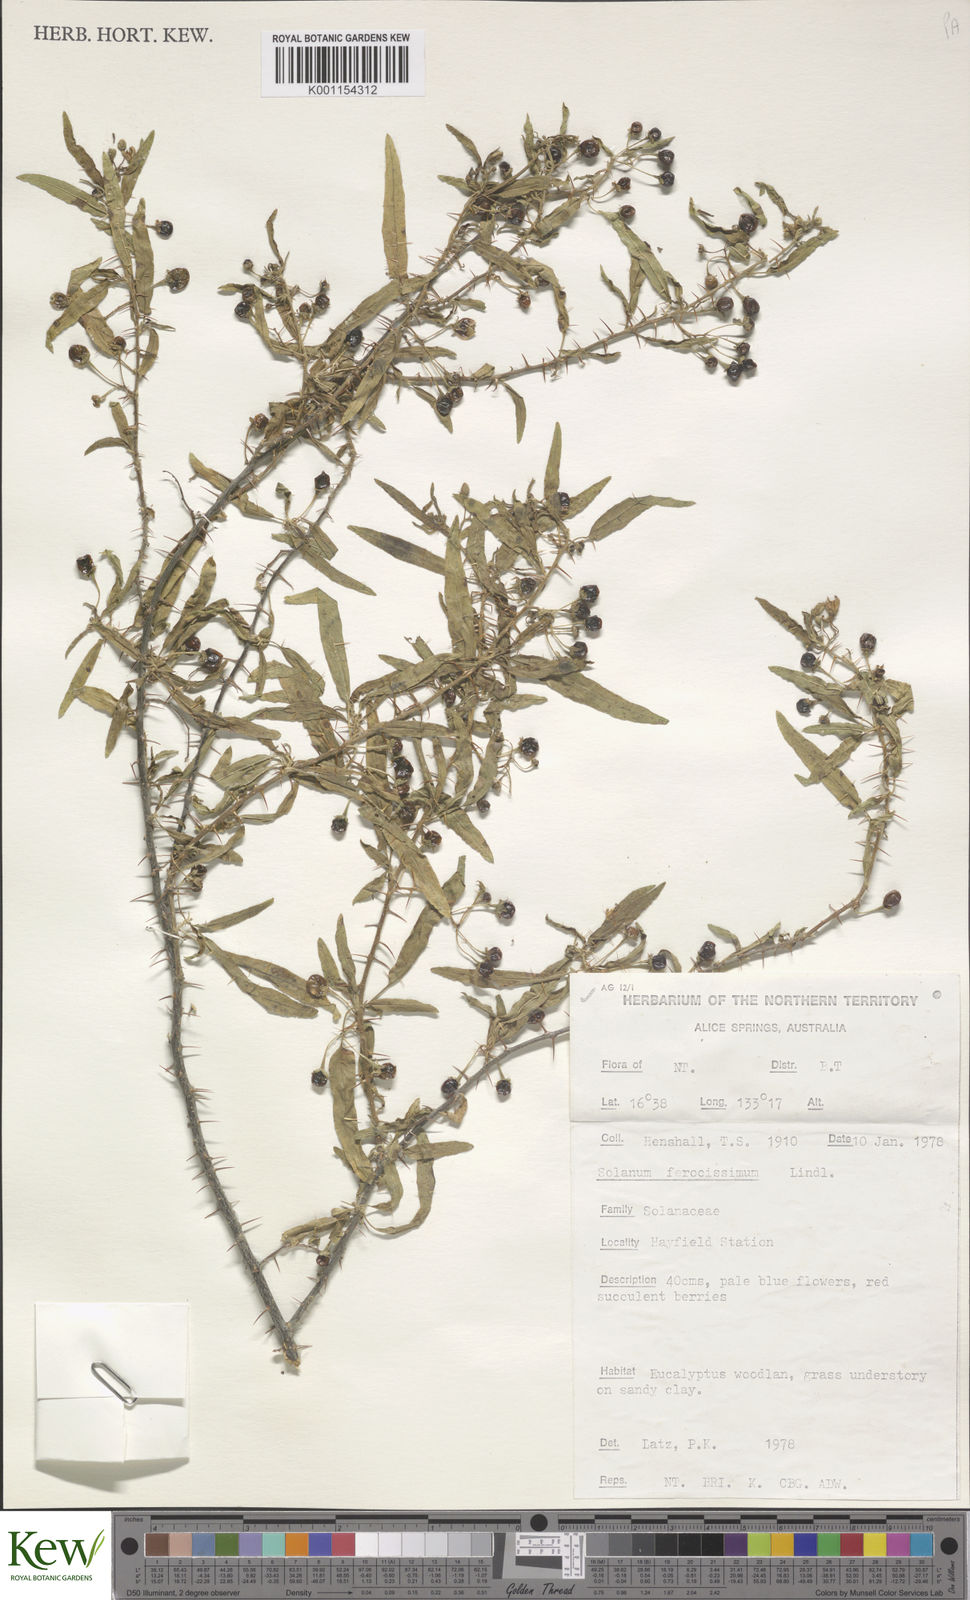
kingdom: Plantae
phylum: Tracheophyta
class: Magnoliopsida
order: Solanales
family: Solanaceae
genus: Solanum
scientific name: Solanum ferocissimum
